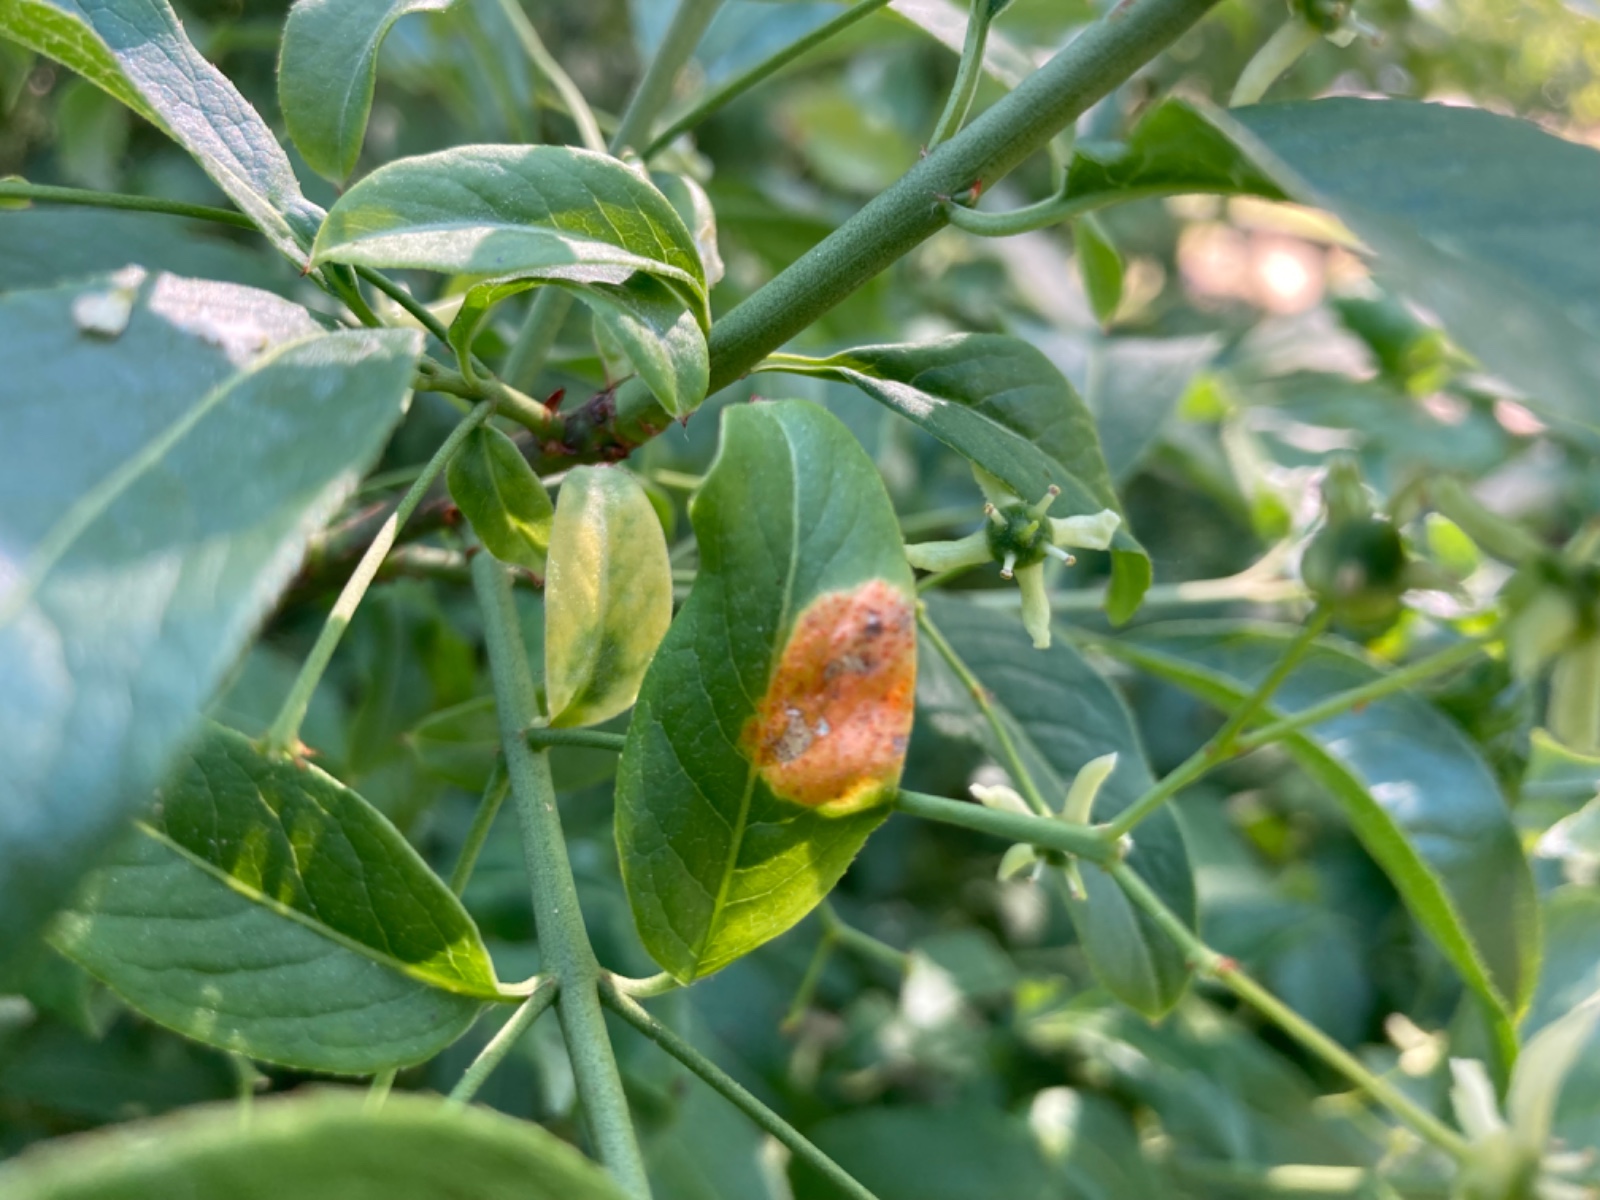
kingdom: Fungi
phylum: Basidiomycota
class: Pucciniomycetes
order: Pucciniales
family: Melampsoraceae
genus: Melampsora
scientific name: Melampsora epitea
